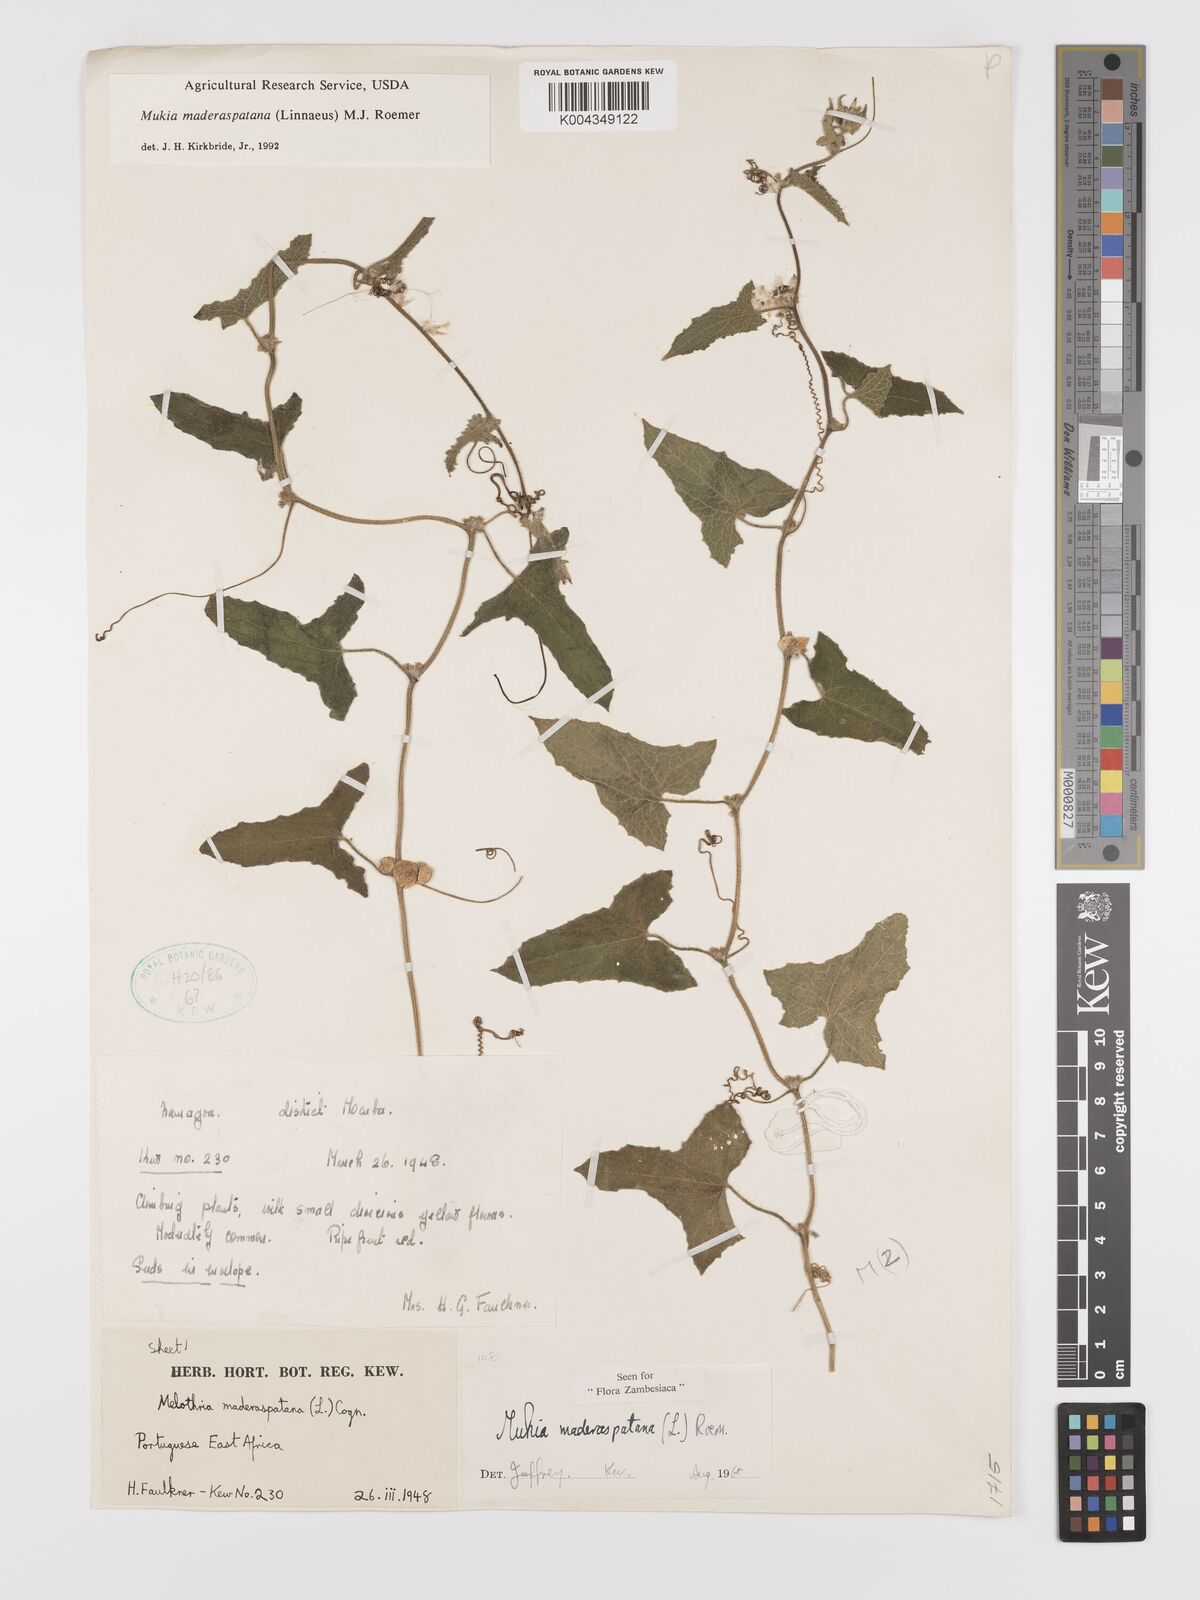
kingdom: Plantae
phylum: Tracheophyta
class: Magnoliopsida
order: Cucurbitales
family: Cucurbitaceae
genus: Cucumis
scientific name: Cucumis maderaspatanus
